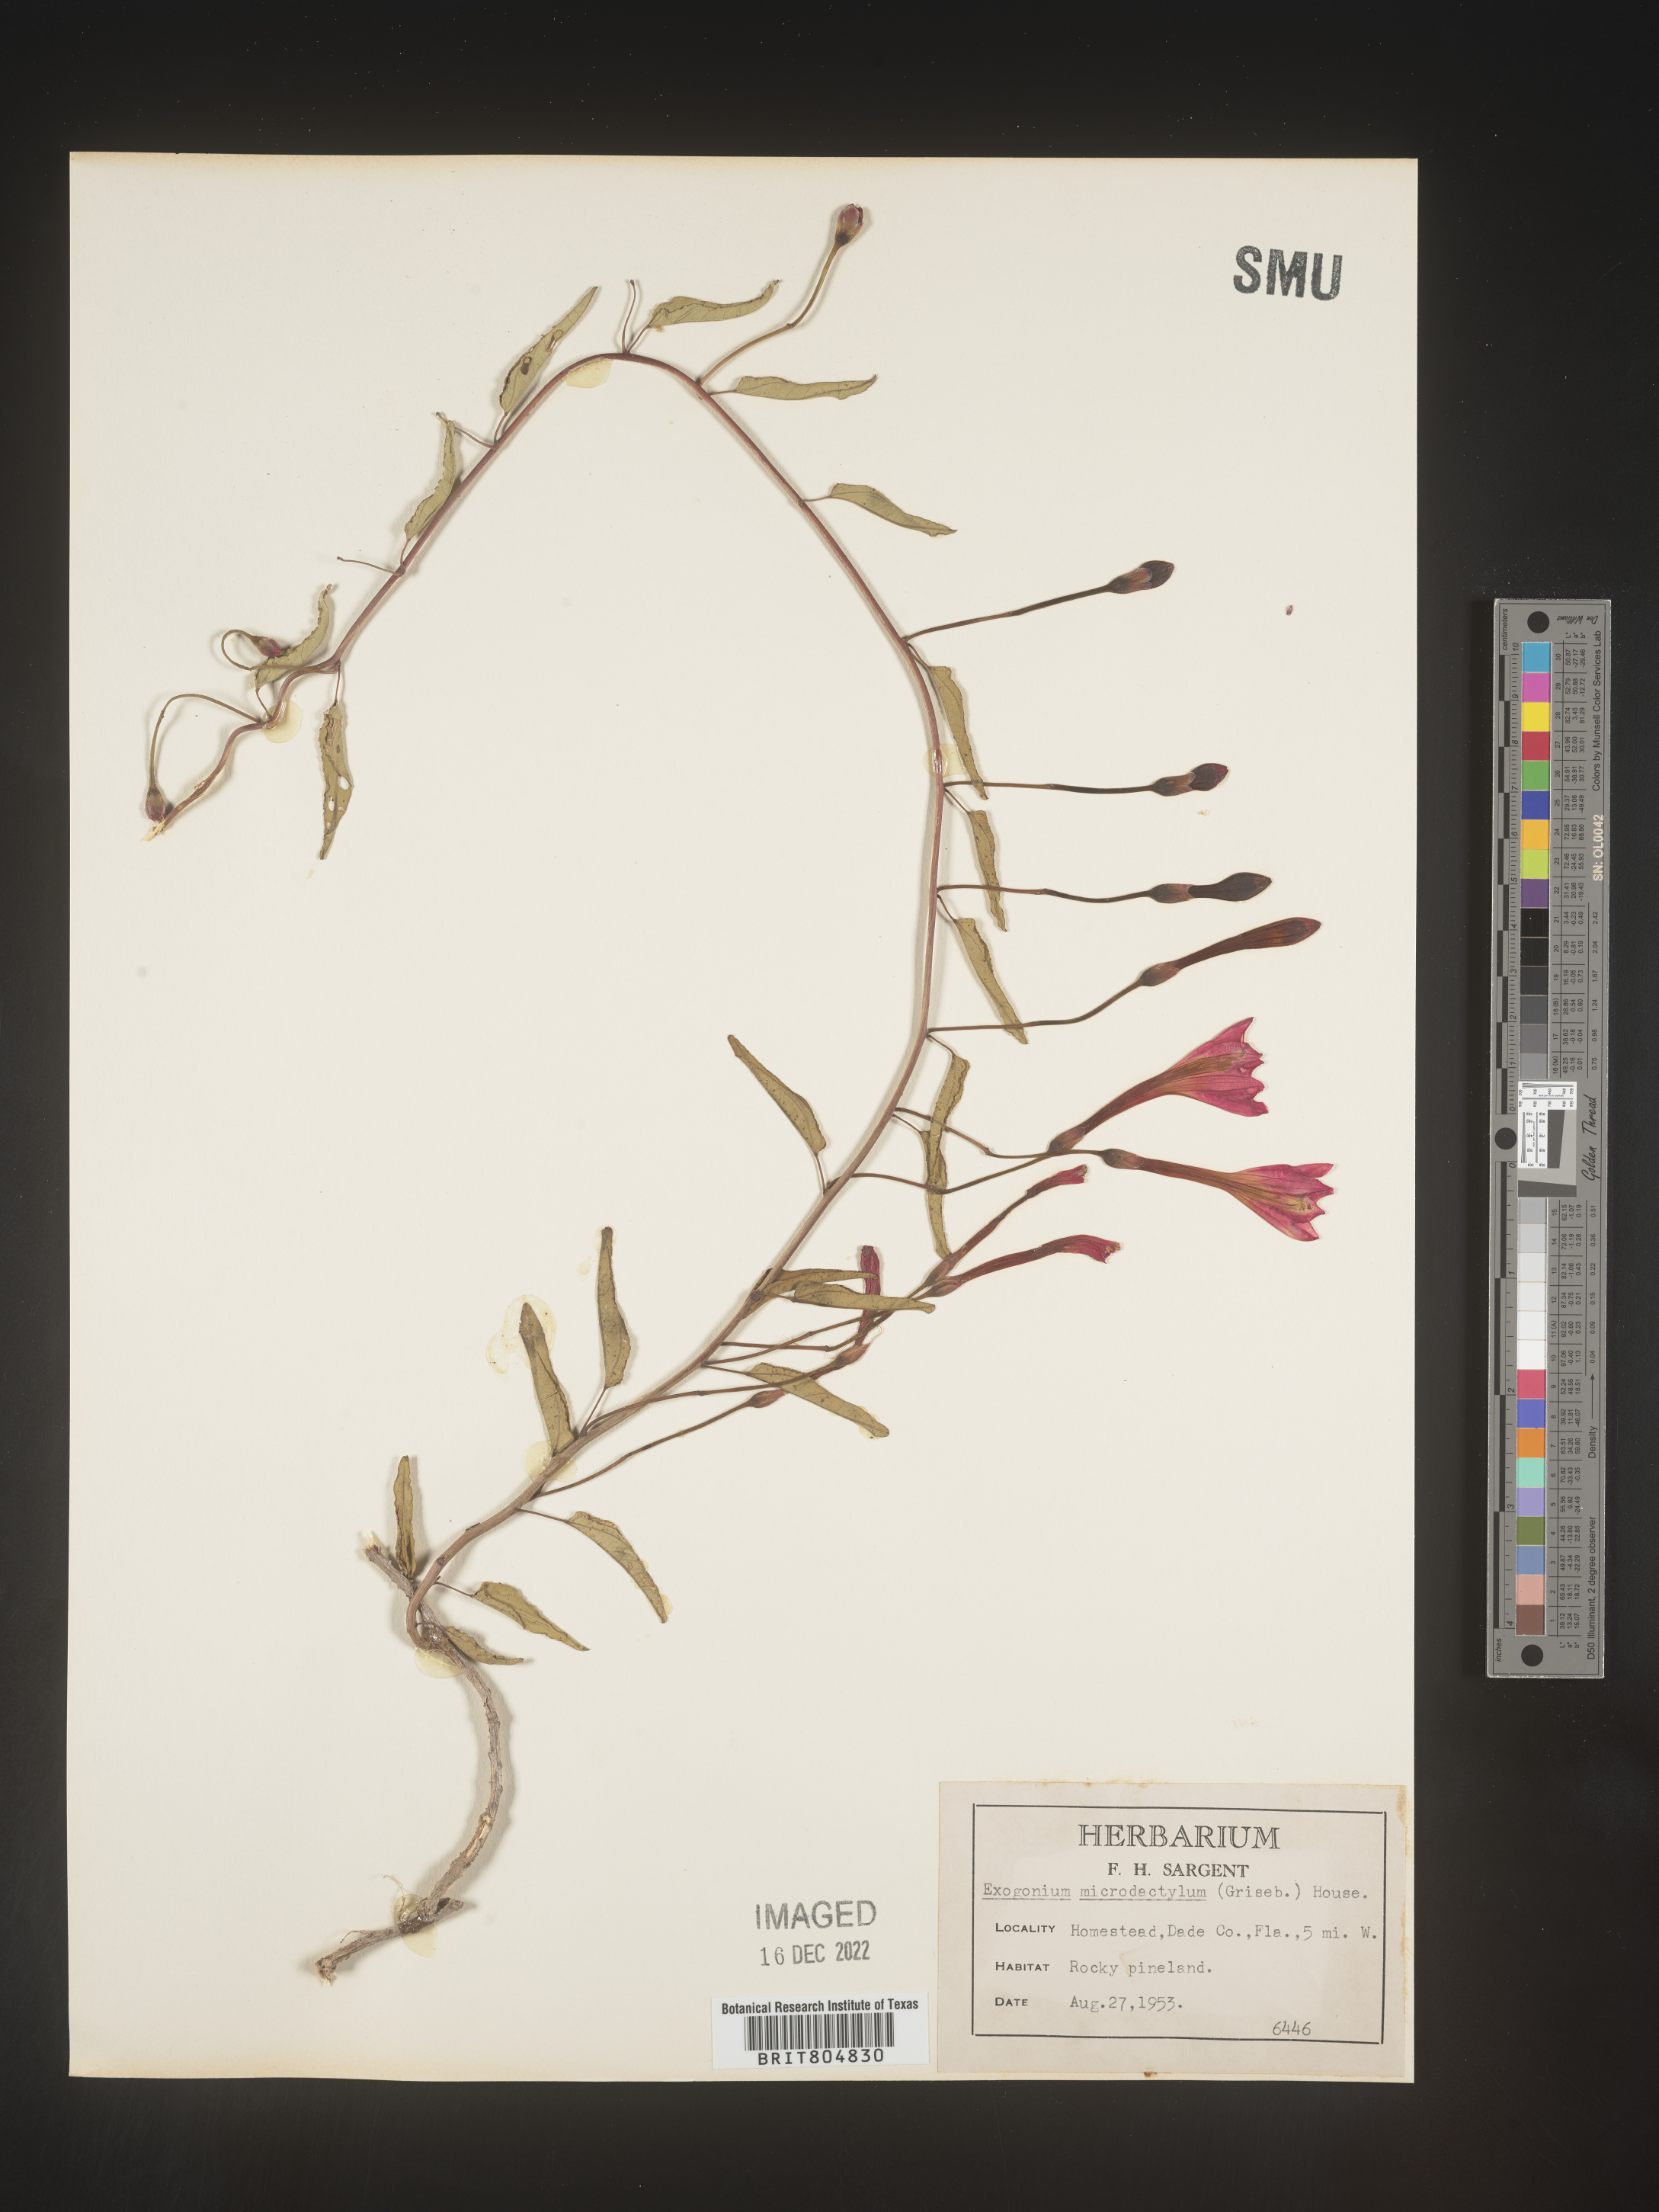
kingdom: Plantae
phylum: Tracheophyta
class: Magnoliopsida
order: Solanales
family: Convolvulaceae
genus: Ipomoea
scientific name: Ipomoea microdactyla
